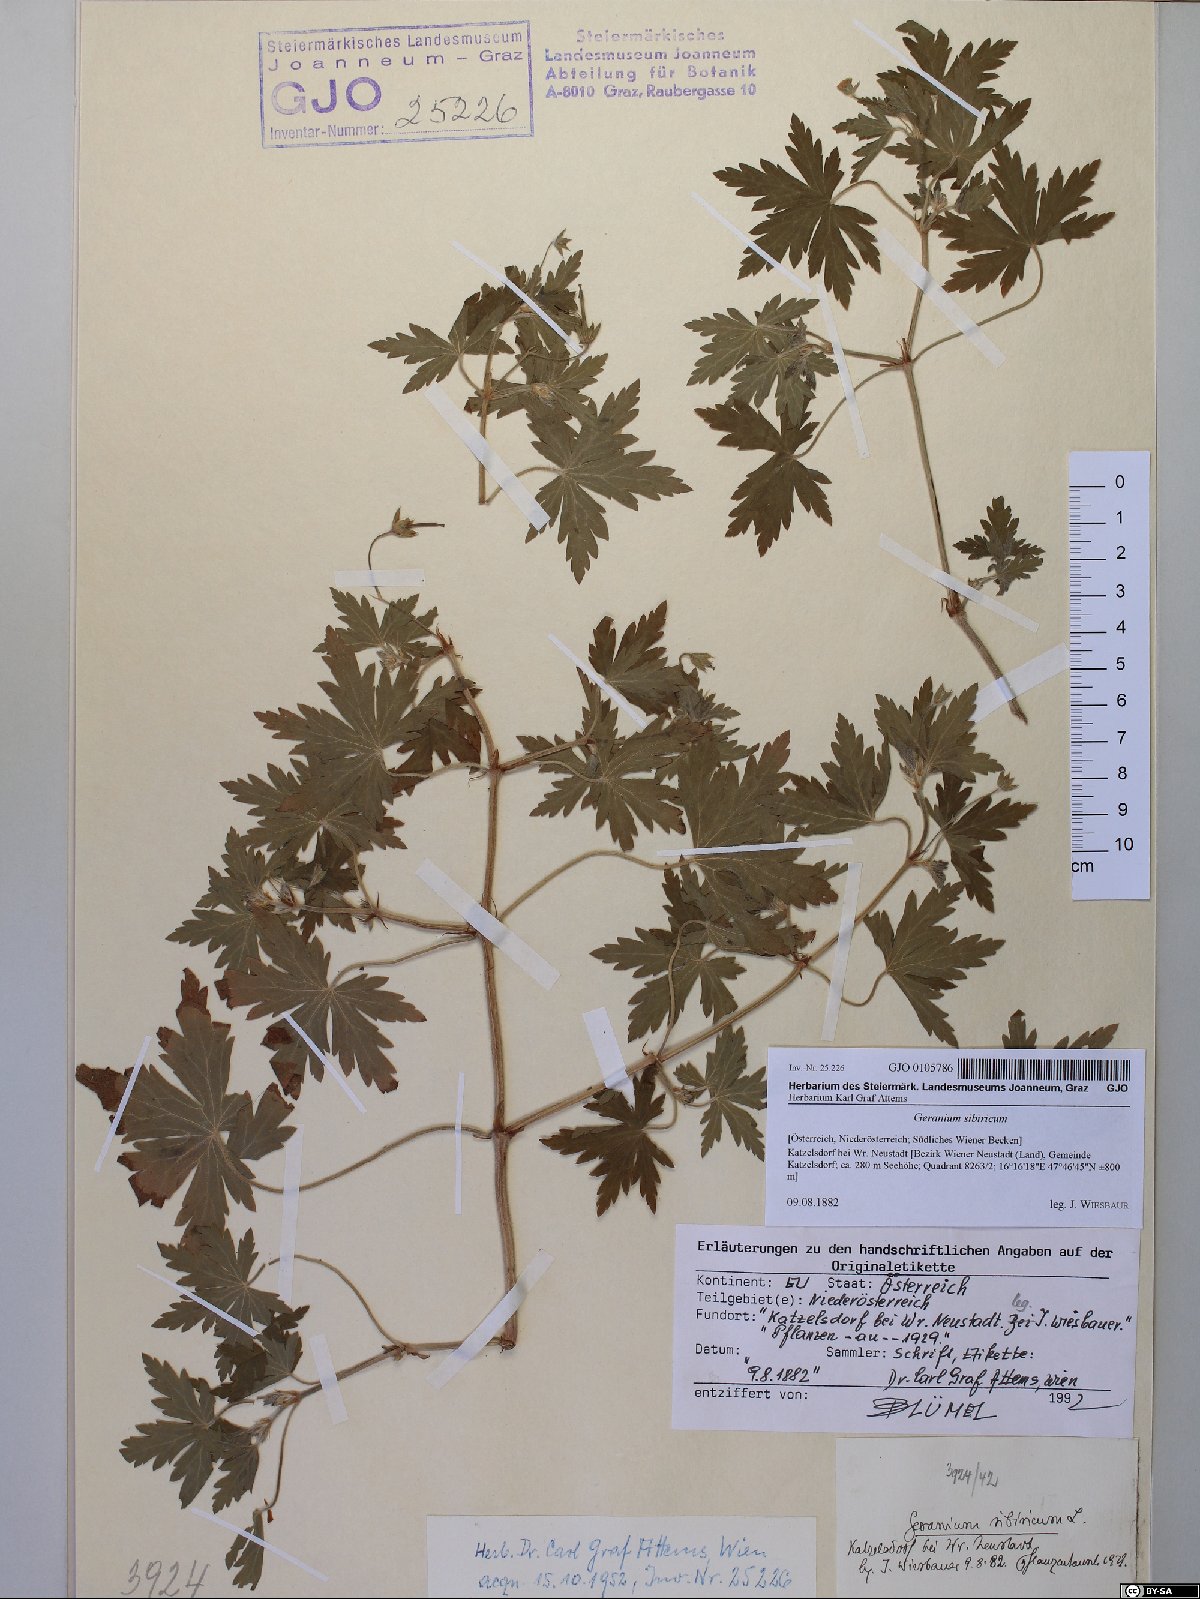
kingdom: Plantae
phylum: Tracheophyta
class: Magnoliopsida
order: Geraniales
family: Geraniaceae
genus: Geranium
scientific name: Geranium sibiricum
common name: Siberian crane's-bill
